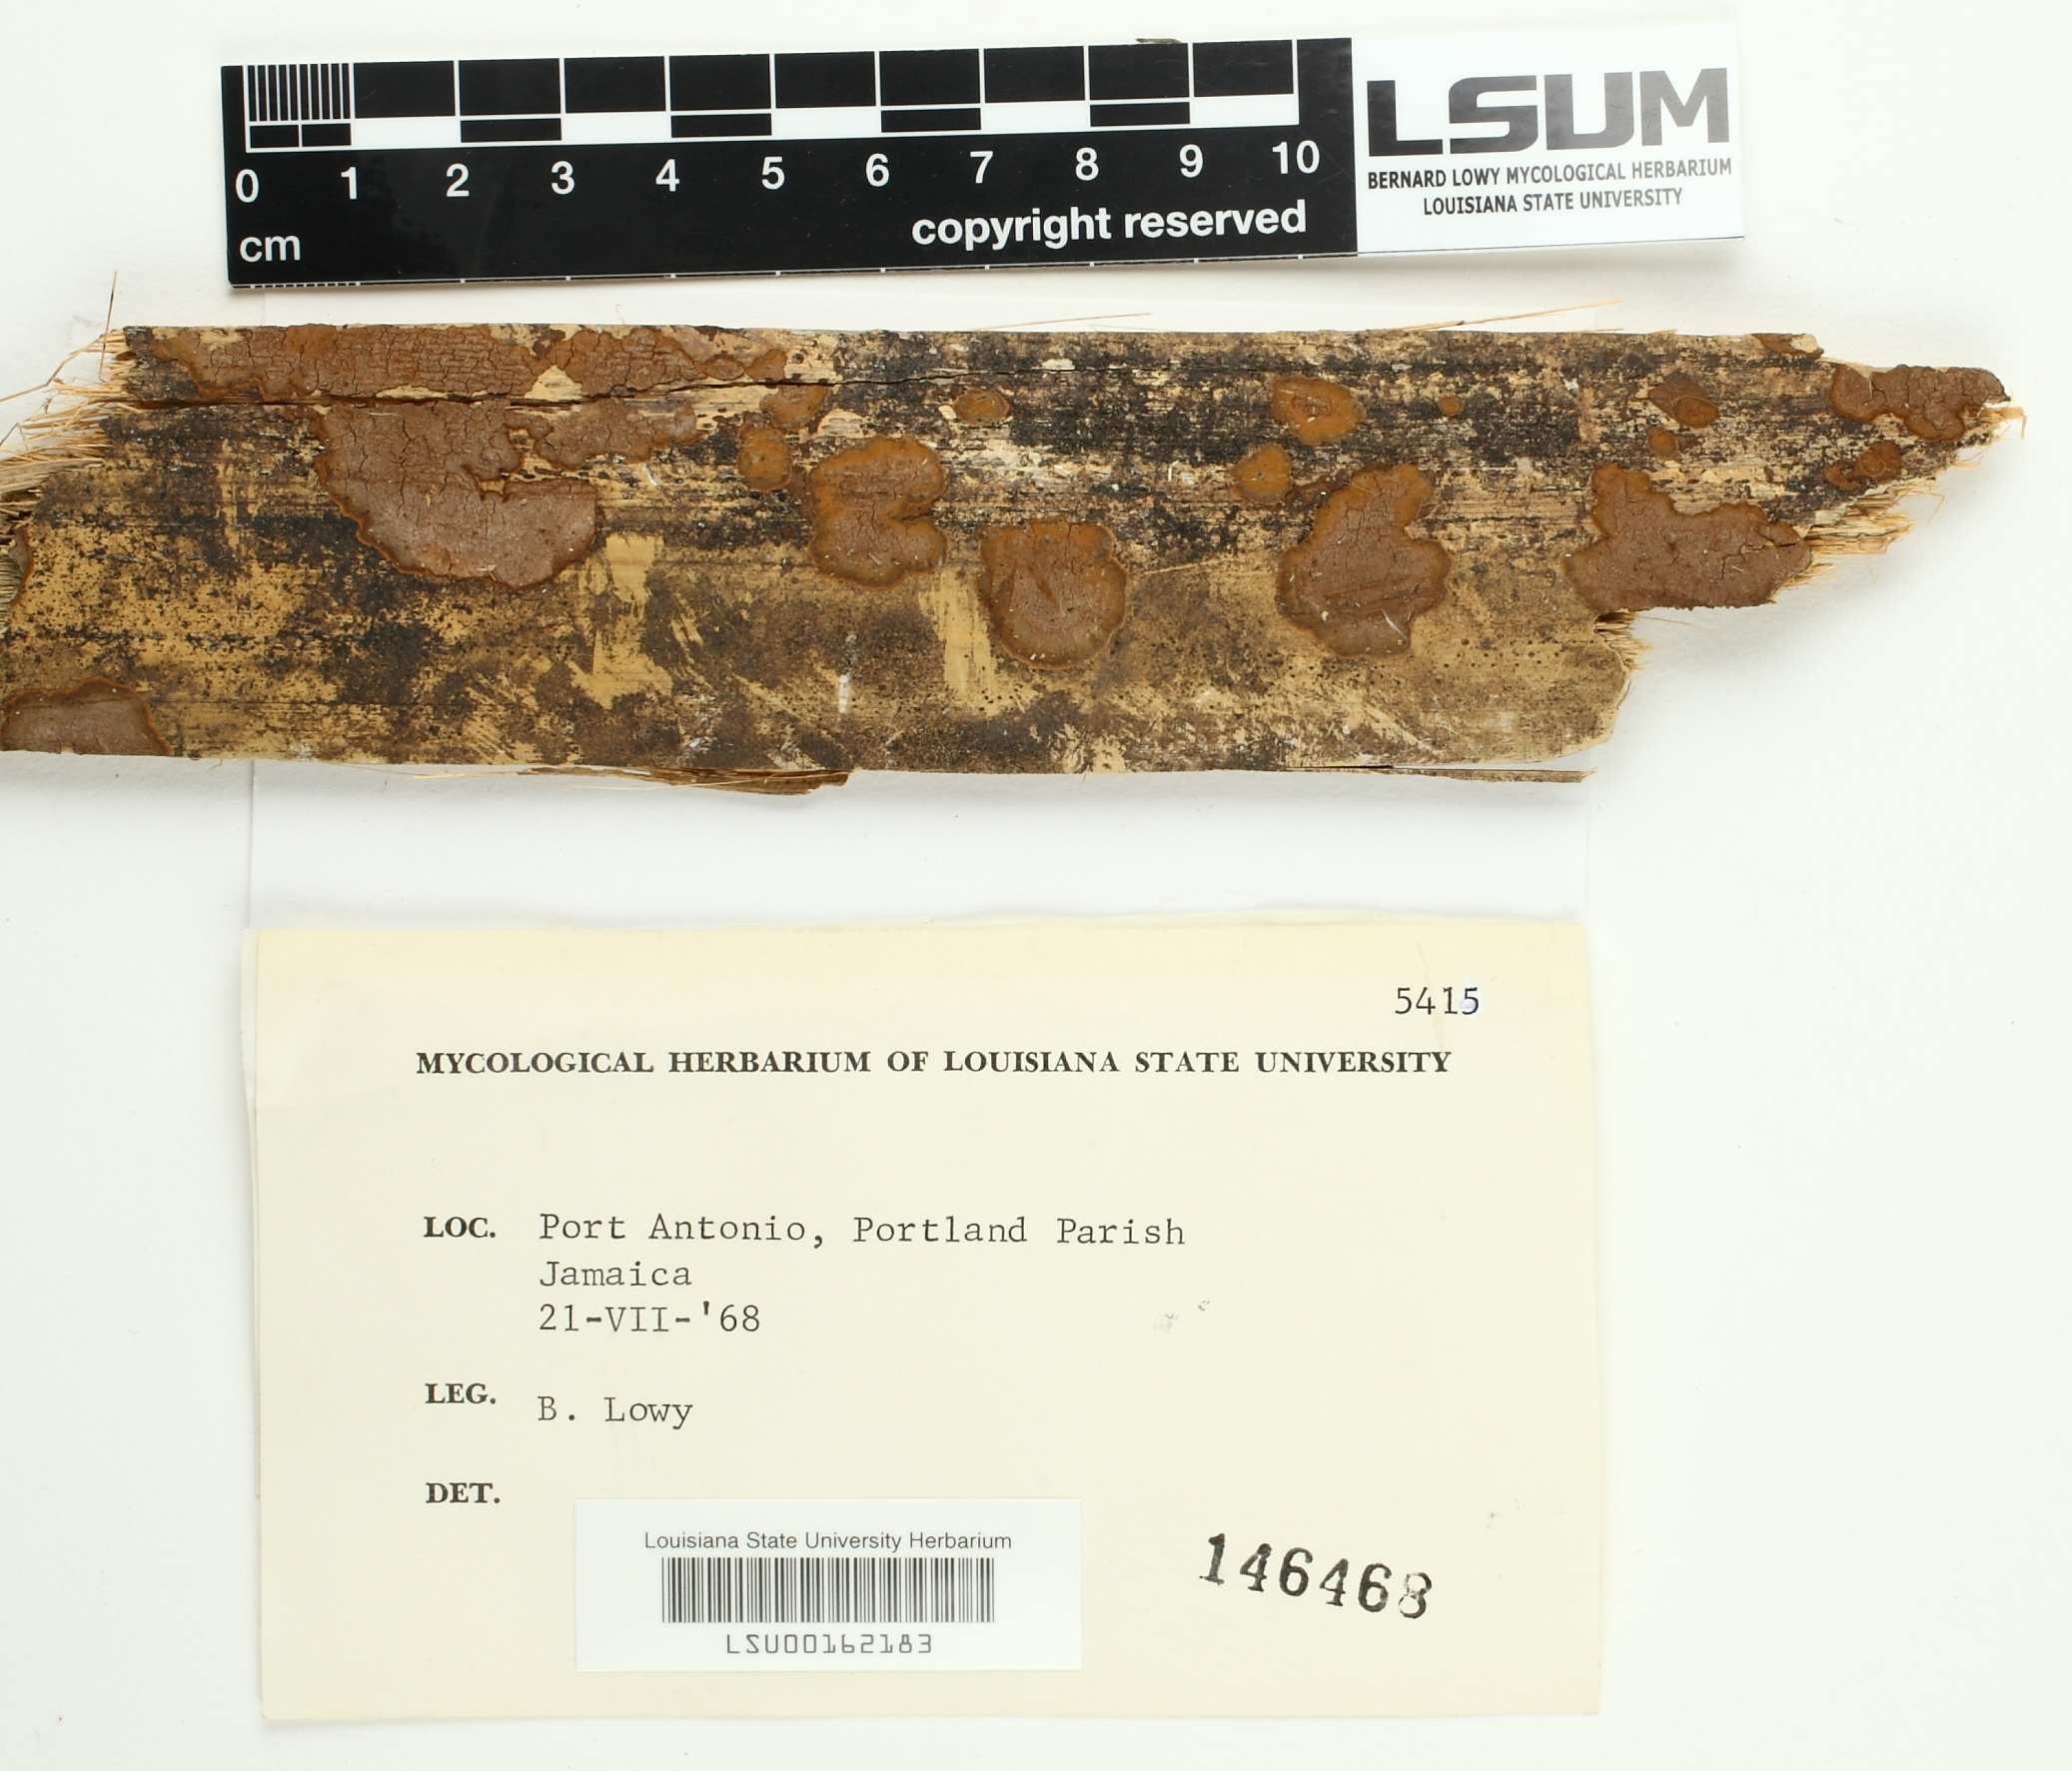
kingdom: Fungi
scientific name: Fungi
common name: Fungi
